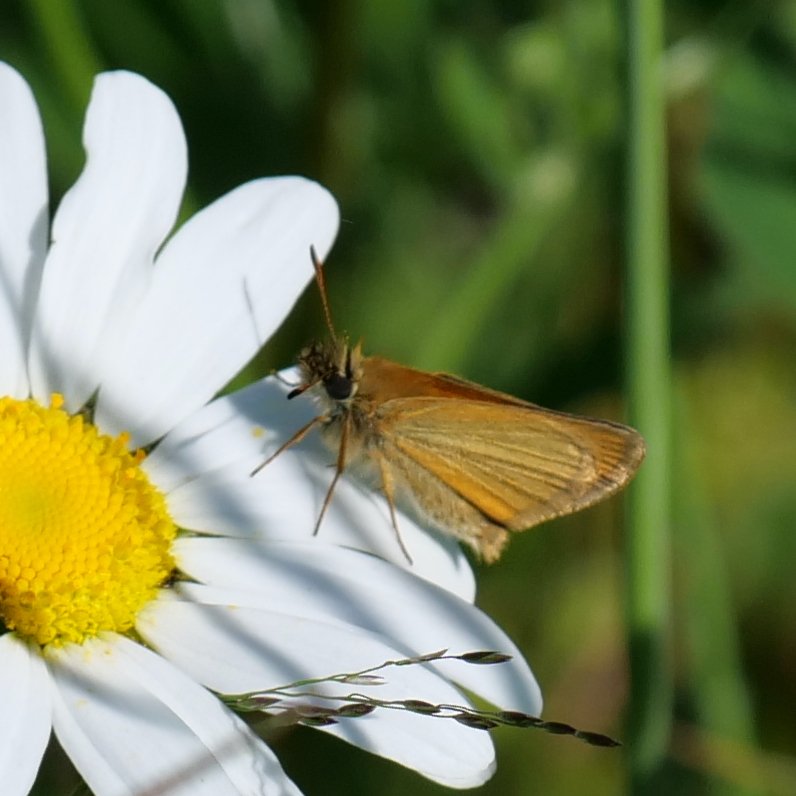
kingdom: Animalia
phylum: Arthropoda
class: Insecta
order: Lepidoptera
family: Hesperiidae
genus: Thymelicus
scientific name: Thymelicus lineola
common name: European Skipper
